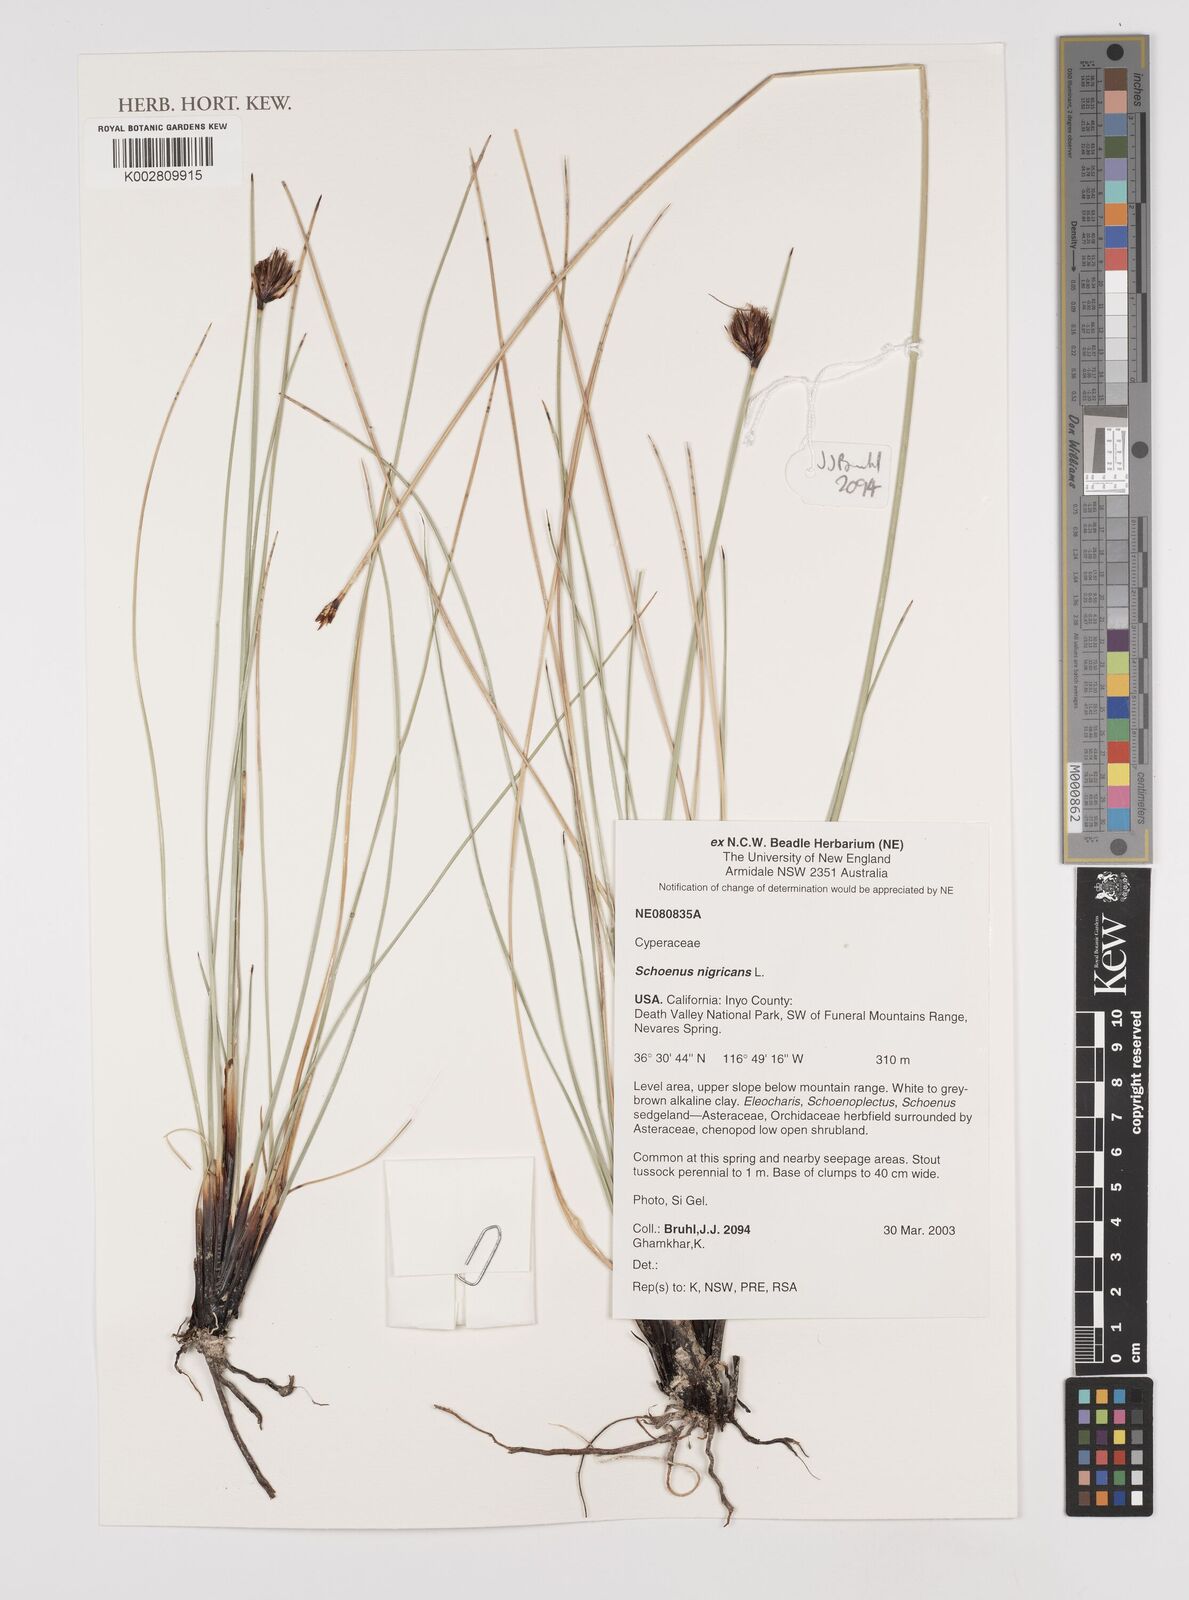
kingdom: Plantae
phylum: Tracheophyta
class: Liliopsida
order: Poales
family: Cyperaceae
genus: Schoenus
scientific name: Schoenus nigricans
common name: Black bog-rush
